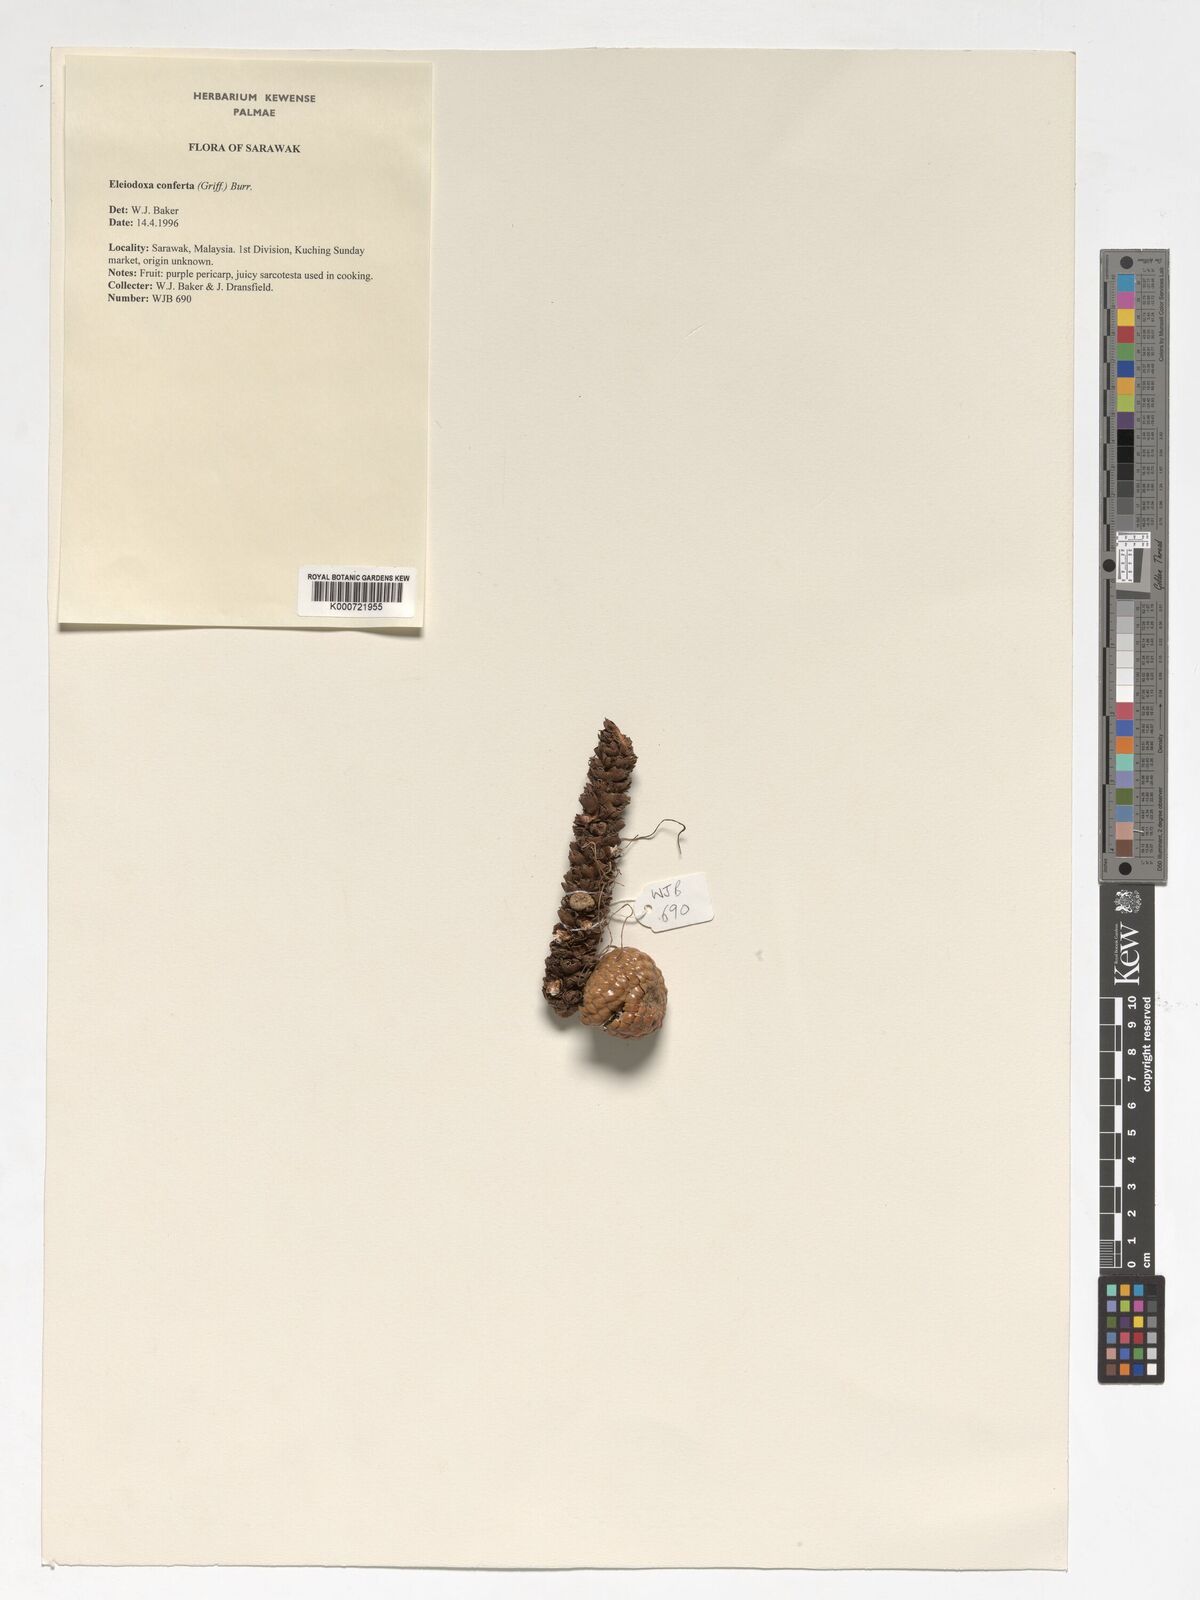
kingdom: Plantae
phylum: Tracheophyta
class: Liliopsida
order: Arecales
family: Arecaceae
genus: Eleiodoxa
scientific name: Eleiodoxa conferta
